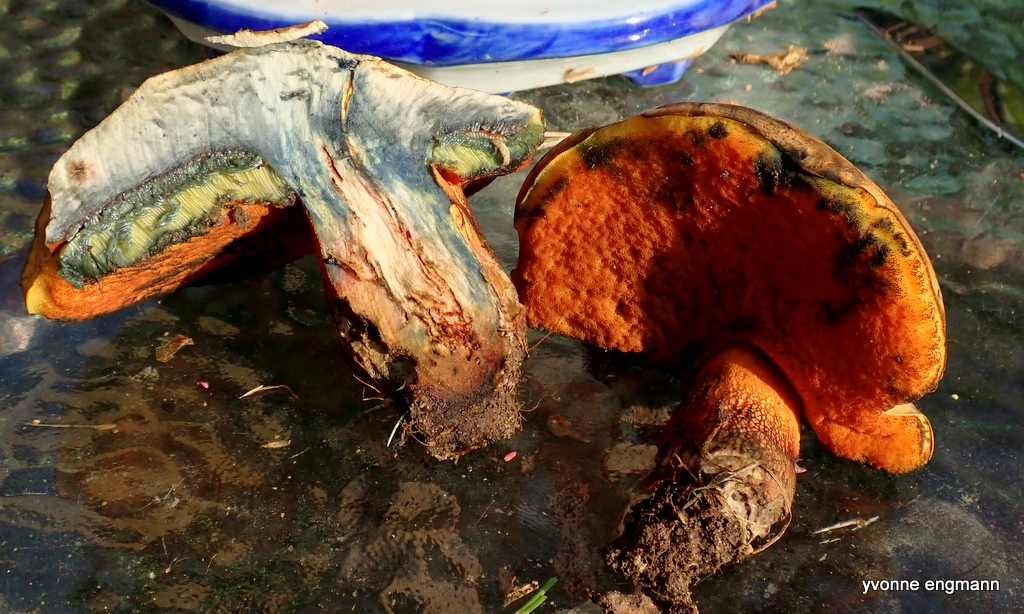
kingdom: Fungi
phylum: Basidiomycota
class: Agaricomycetes
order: Boletales
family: Boletaceae
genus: Suillellus
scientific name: Suillellus luridus
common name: netstokket indigorørhat
